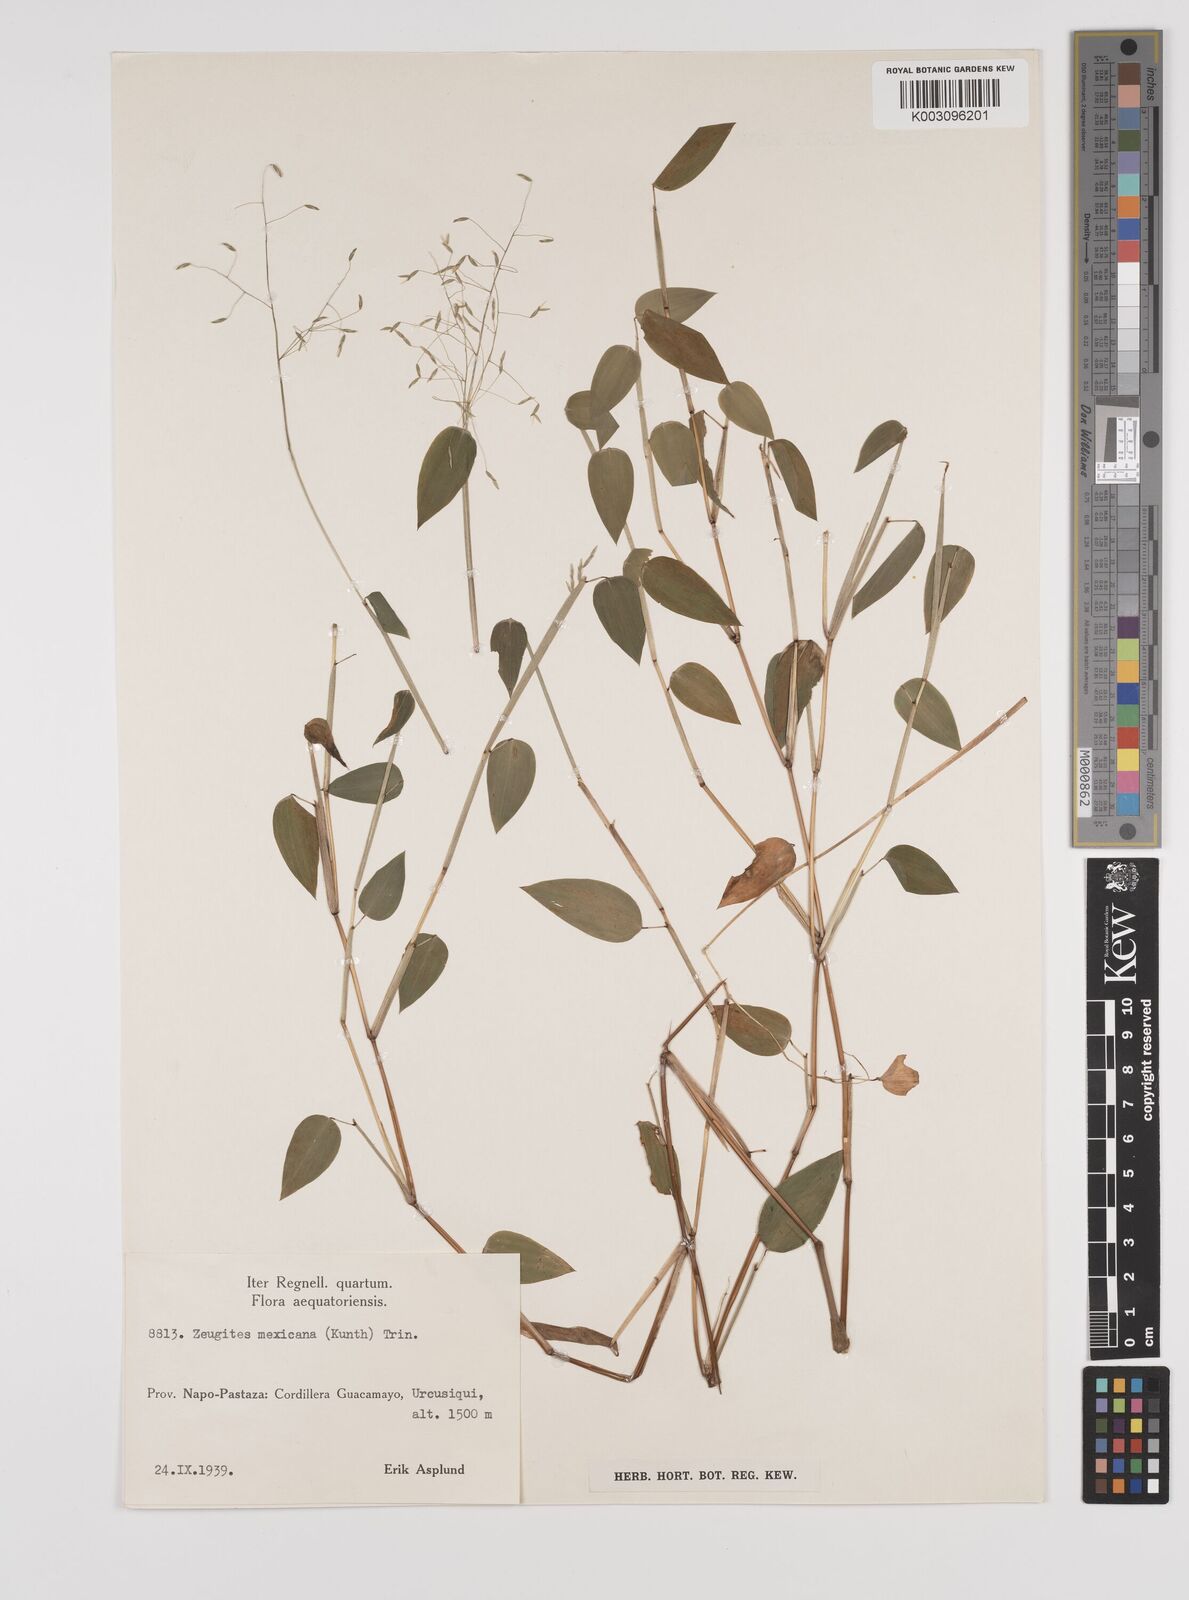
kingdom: Plantae
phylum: Tracheophyta
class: Liliopsida
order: Poales
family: Poaceae
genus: Zeugites
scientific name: Zeugites americanus
